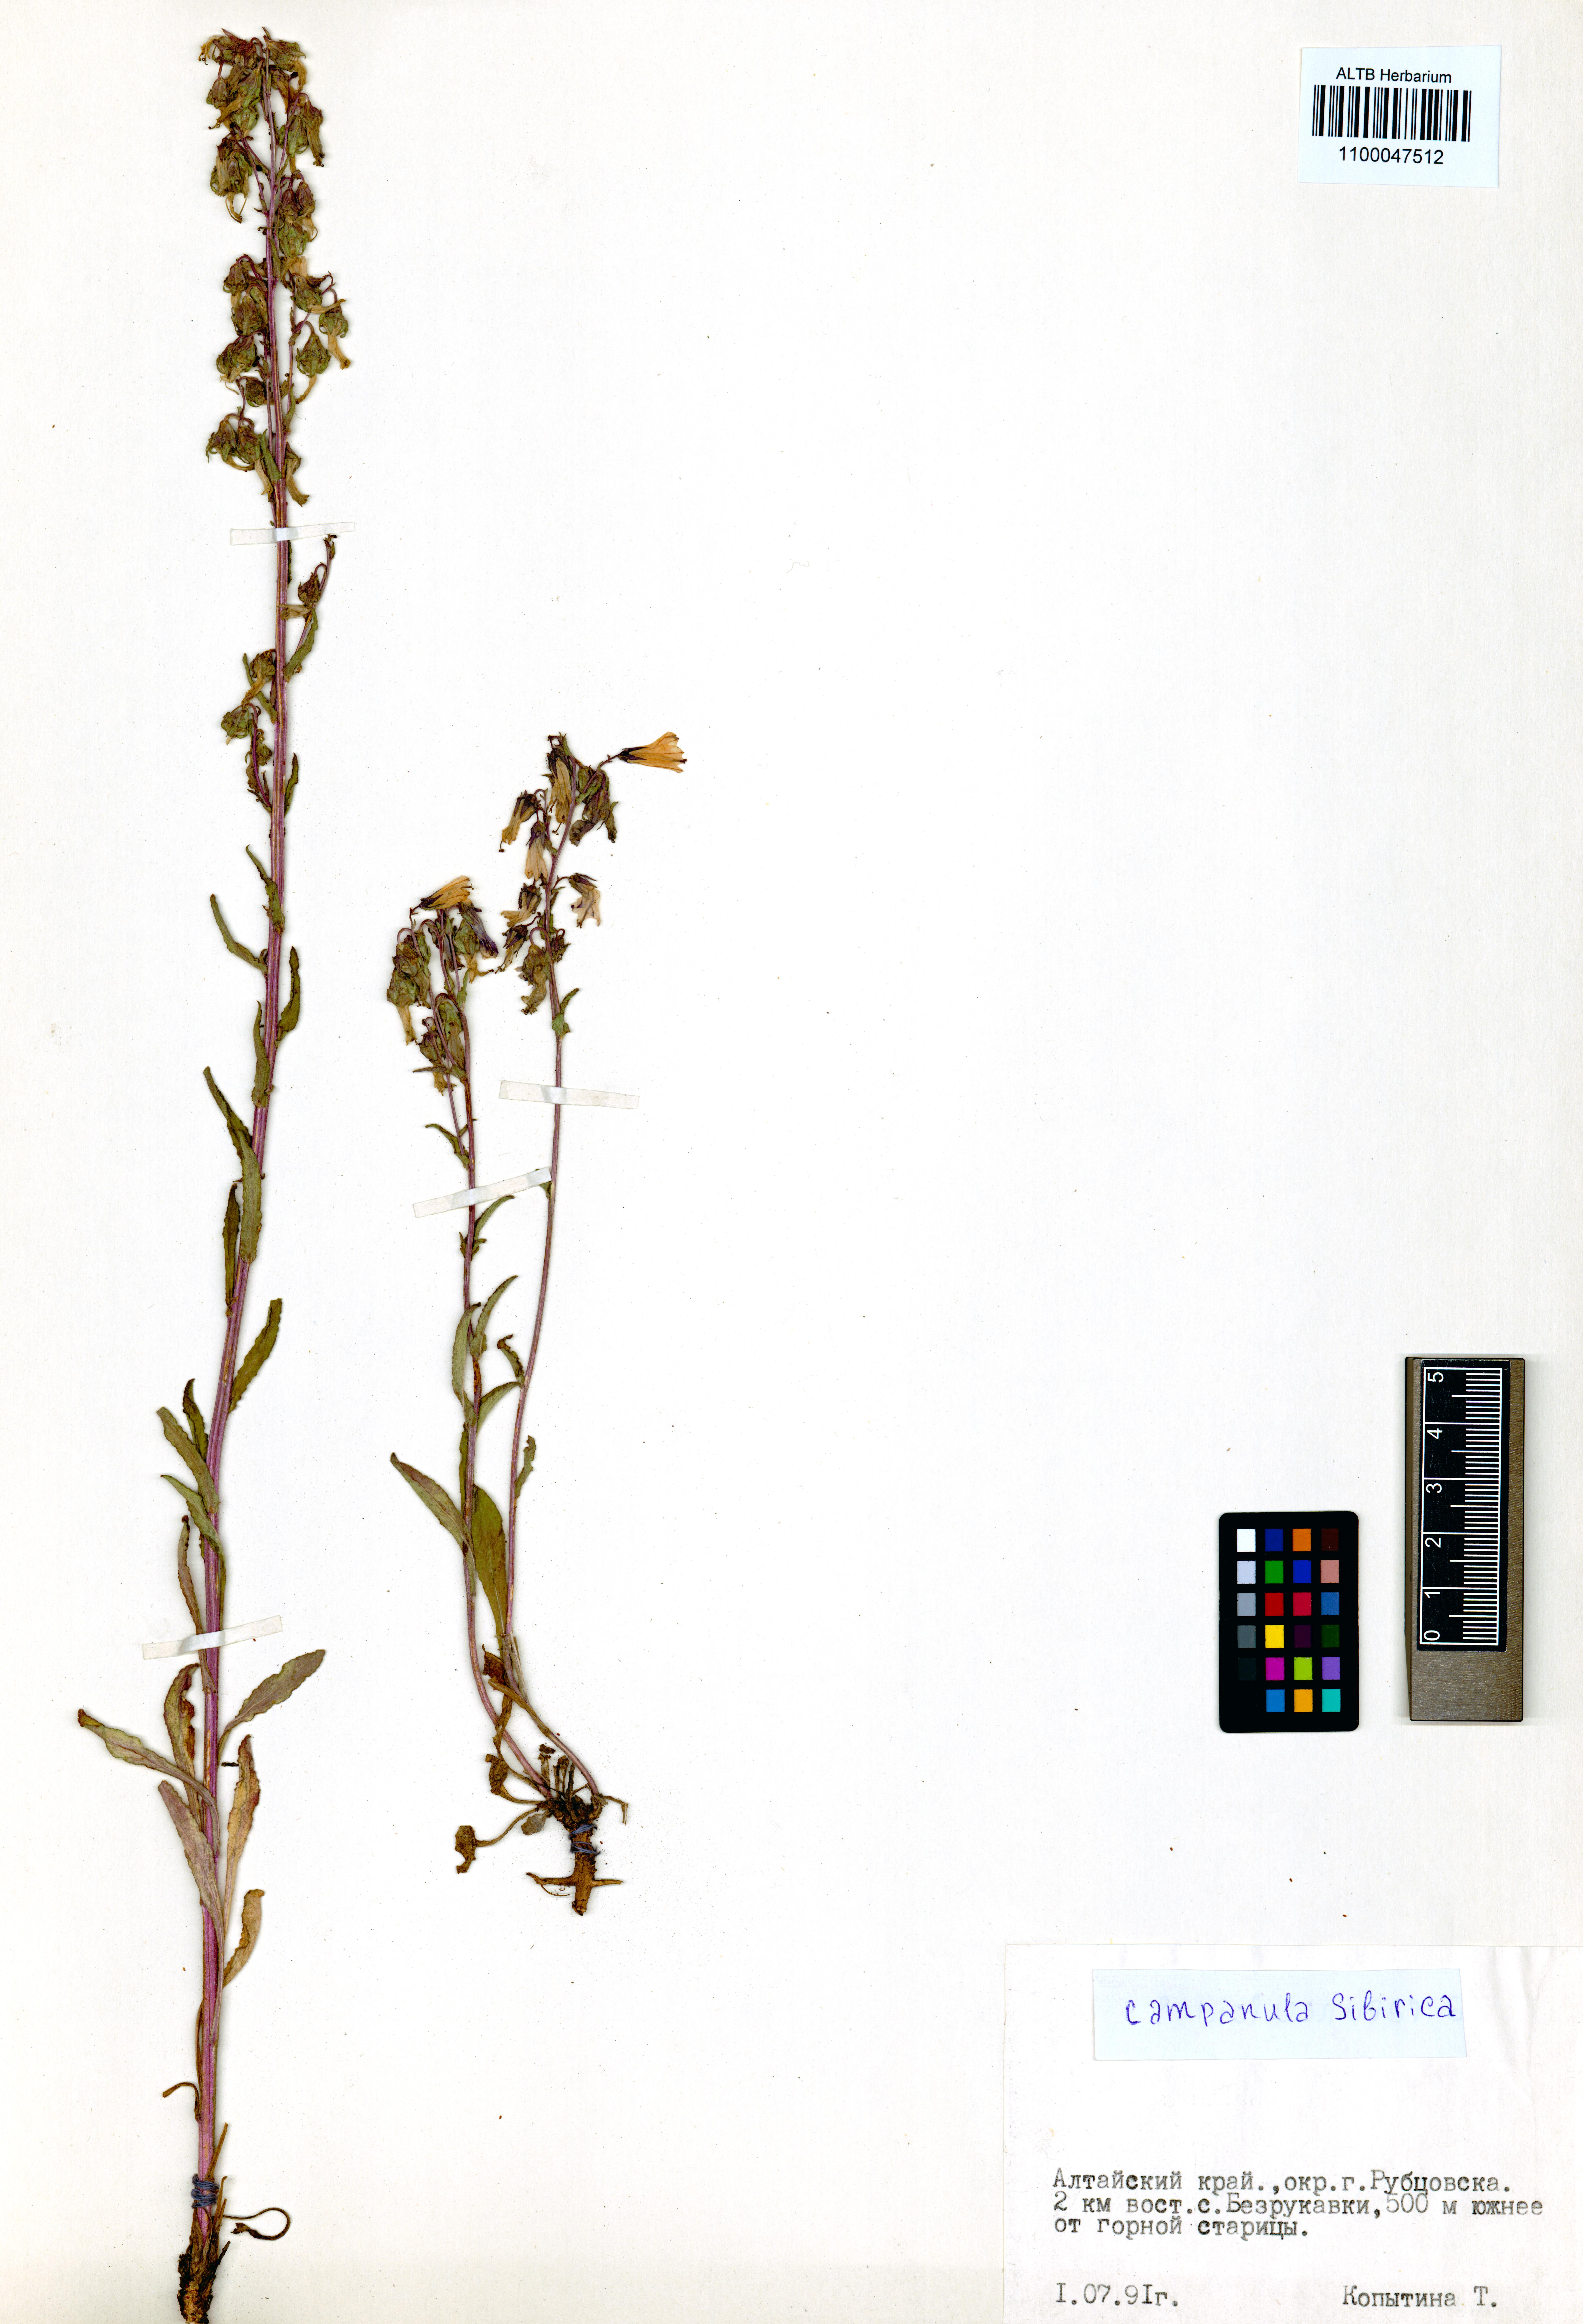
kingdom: Plantae
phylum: Tracheophyta
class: Magnoliopsida
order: Asterales
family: Campanulaceae
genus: Campanula
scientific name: Campanula sibirica
